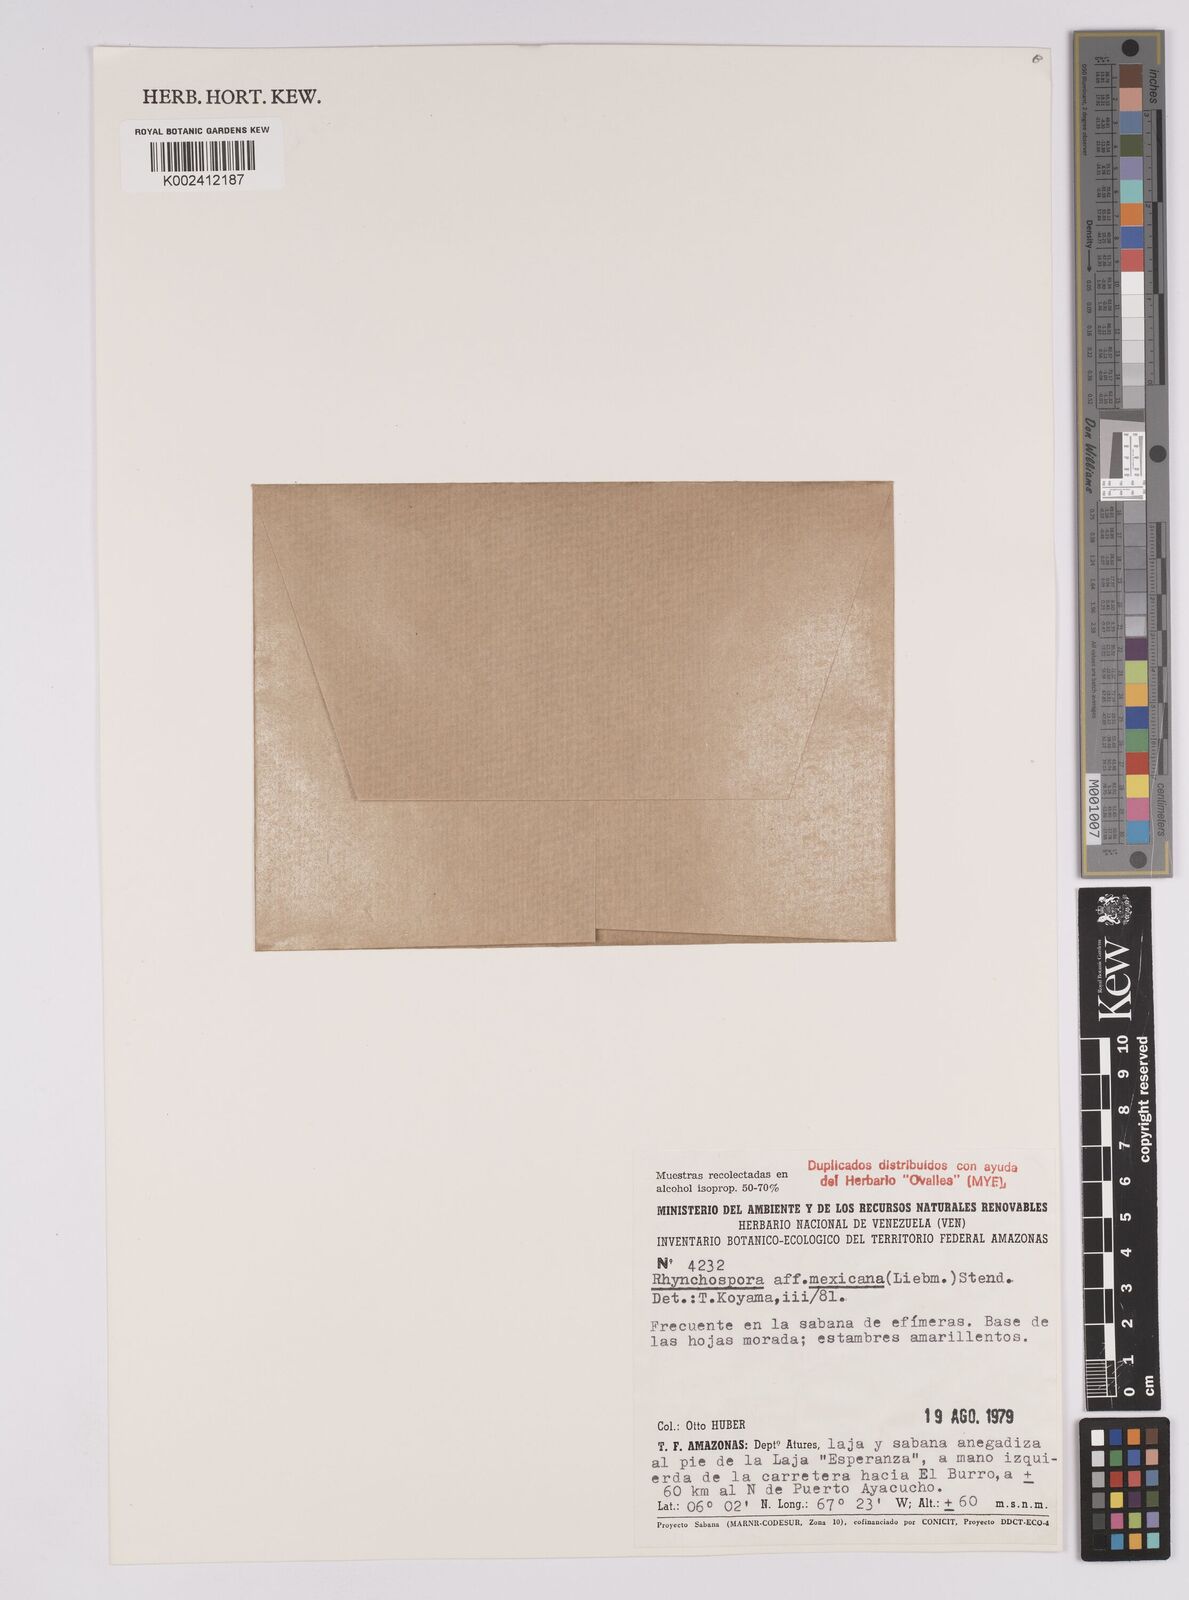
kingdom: Plantae
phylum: Tracheophyta
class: Liliopsida
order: Poales
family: Cyperaceae
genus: Rhynchospora
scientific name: Rhynchospora mexicana
